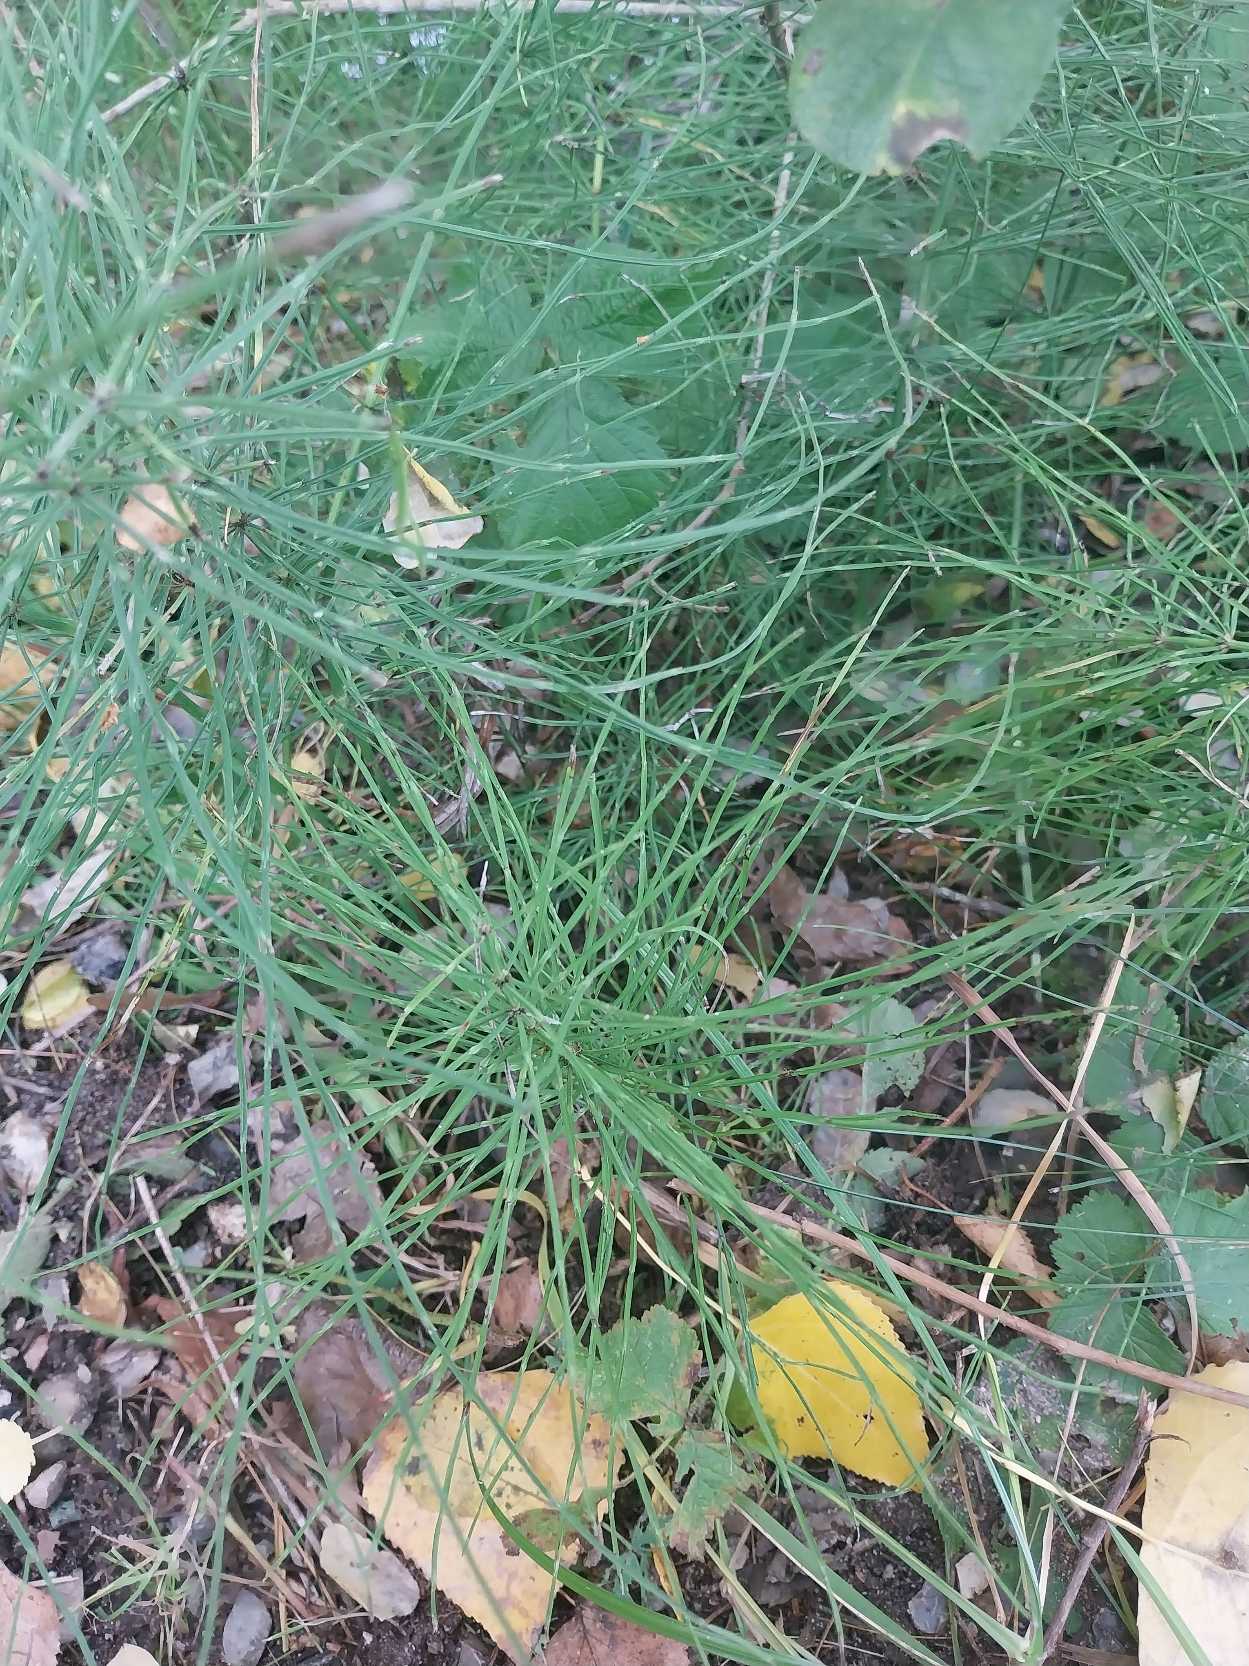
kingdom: Plantae
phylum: Tracheophyta
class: Polypodiopsida
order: Equisetales
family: Equisetaceae
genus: Equisetum
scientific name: Equisetum arvense
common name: Ager-padderok
